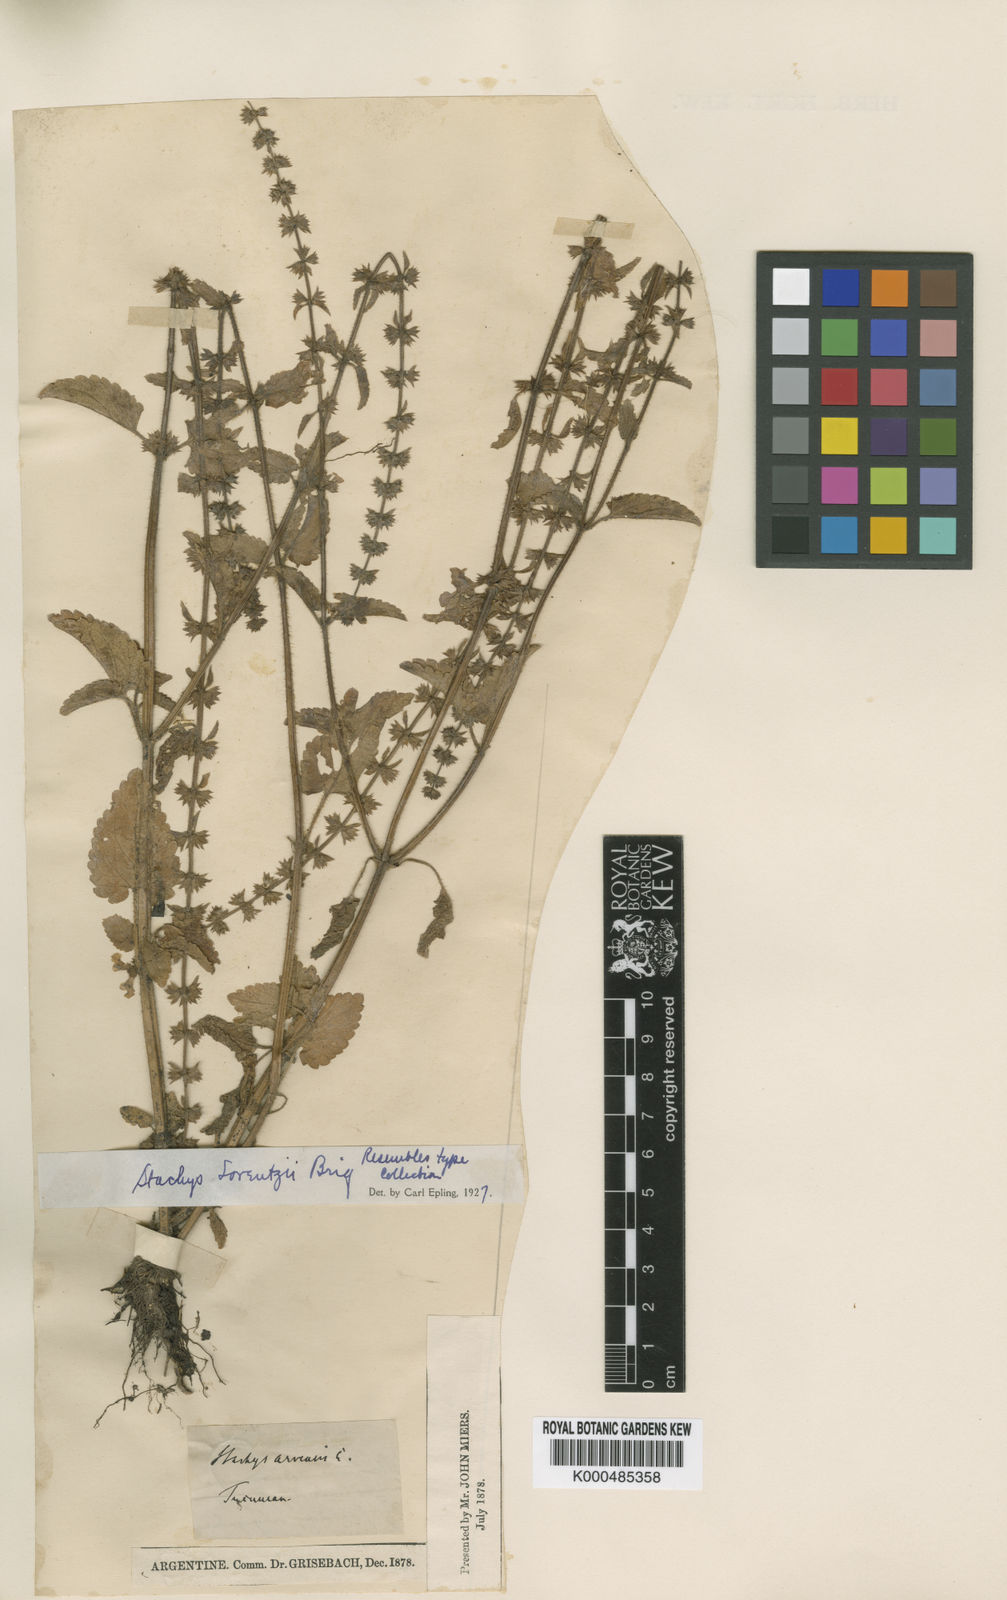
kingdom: Plantae
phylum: Tracheophyta
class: Magnoliopsida
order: Lamiales
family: Lamiaceae
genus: Stachys
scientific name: Stachys gilliesii
